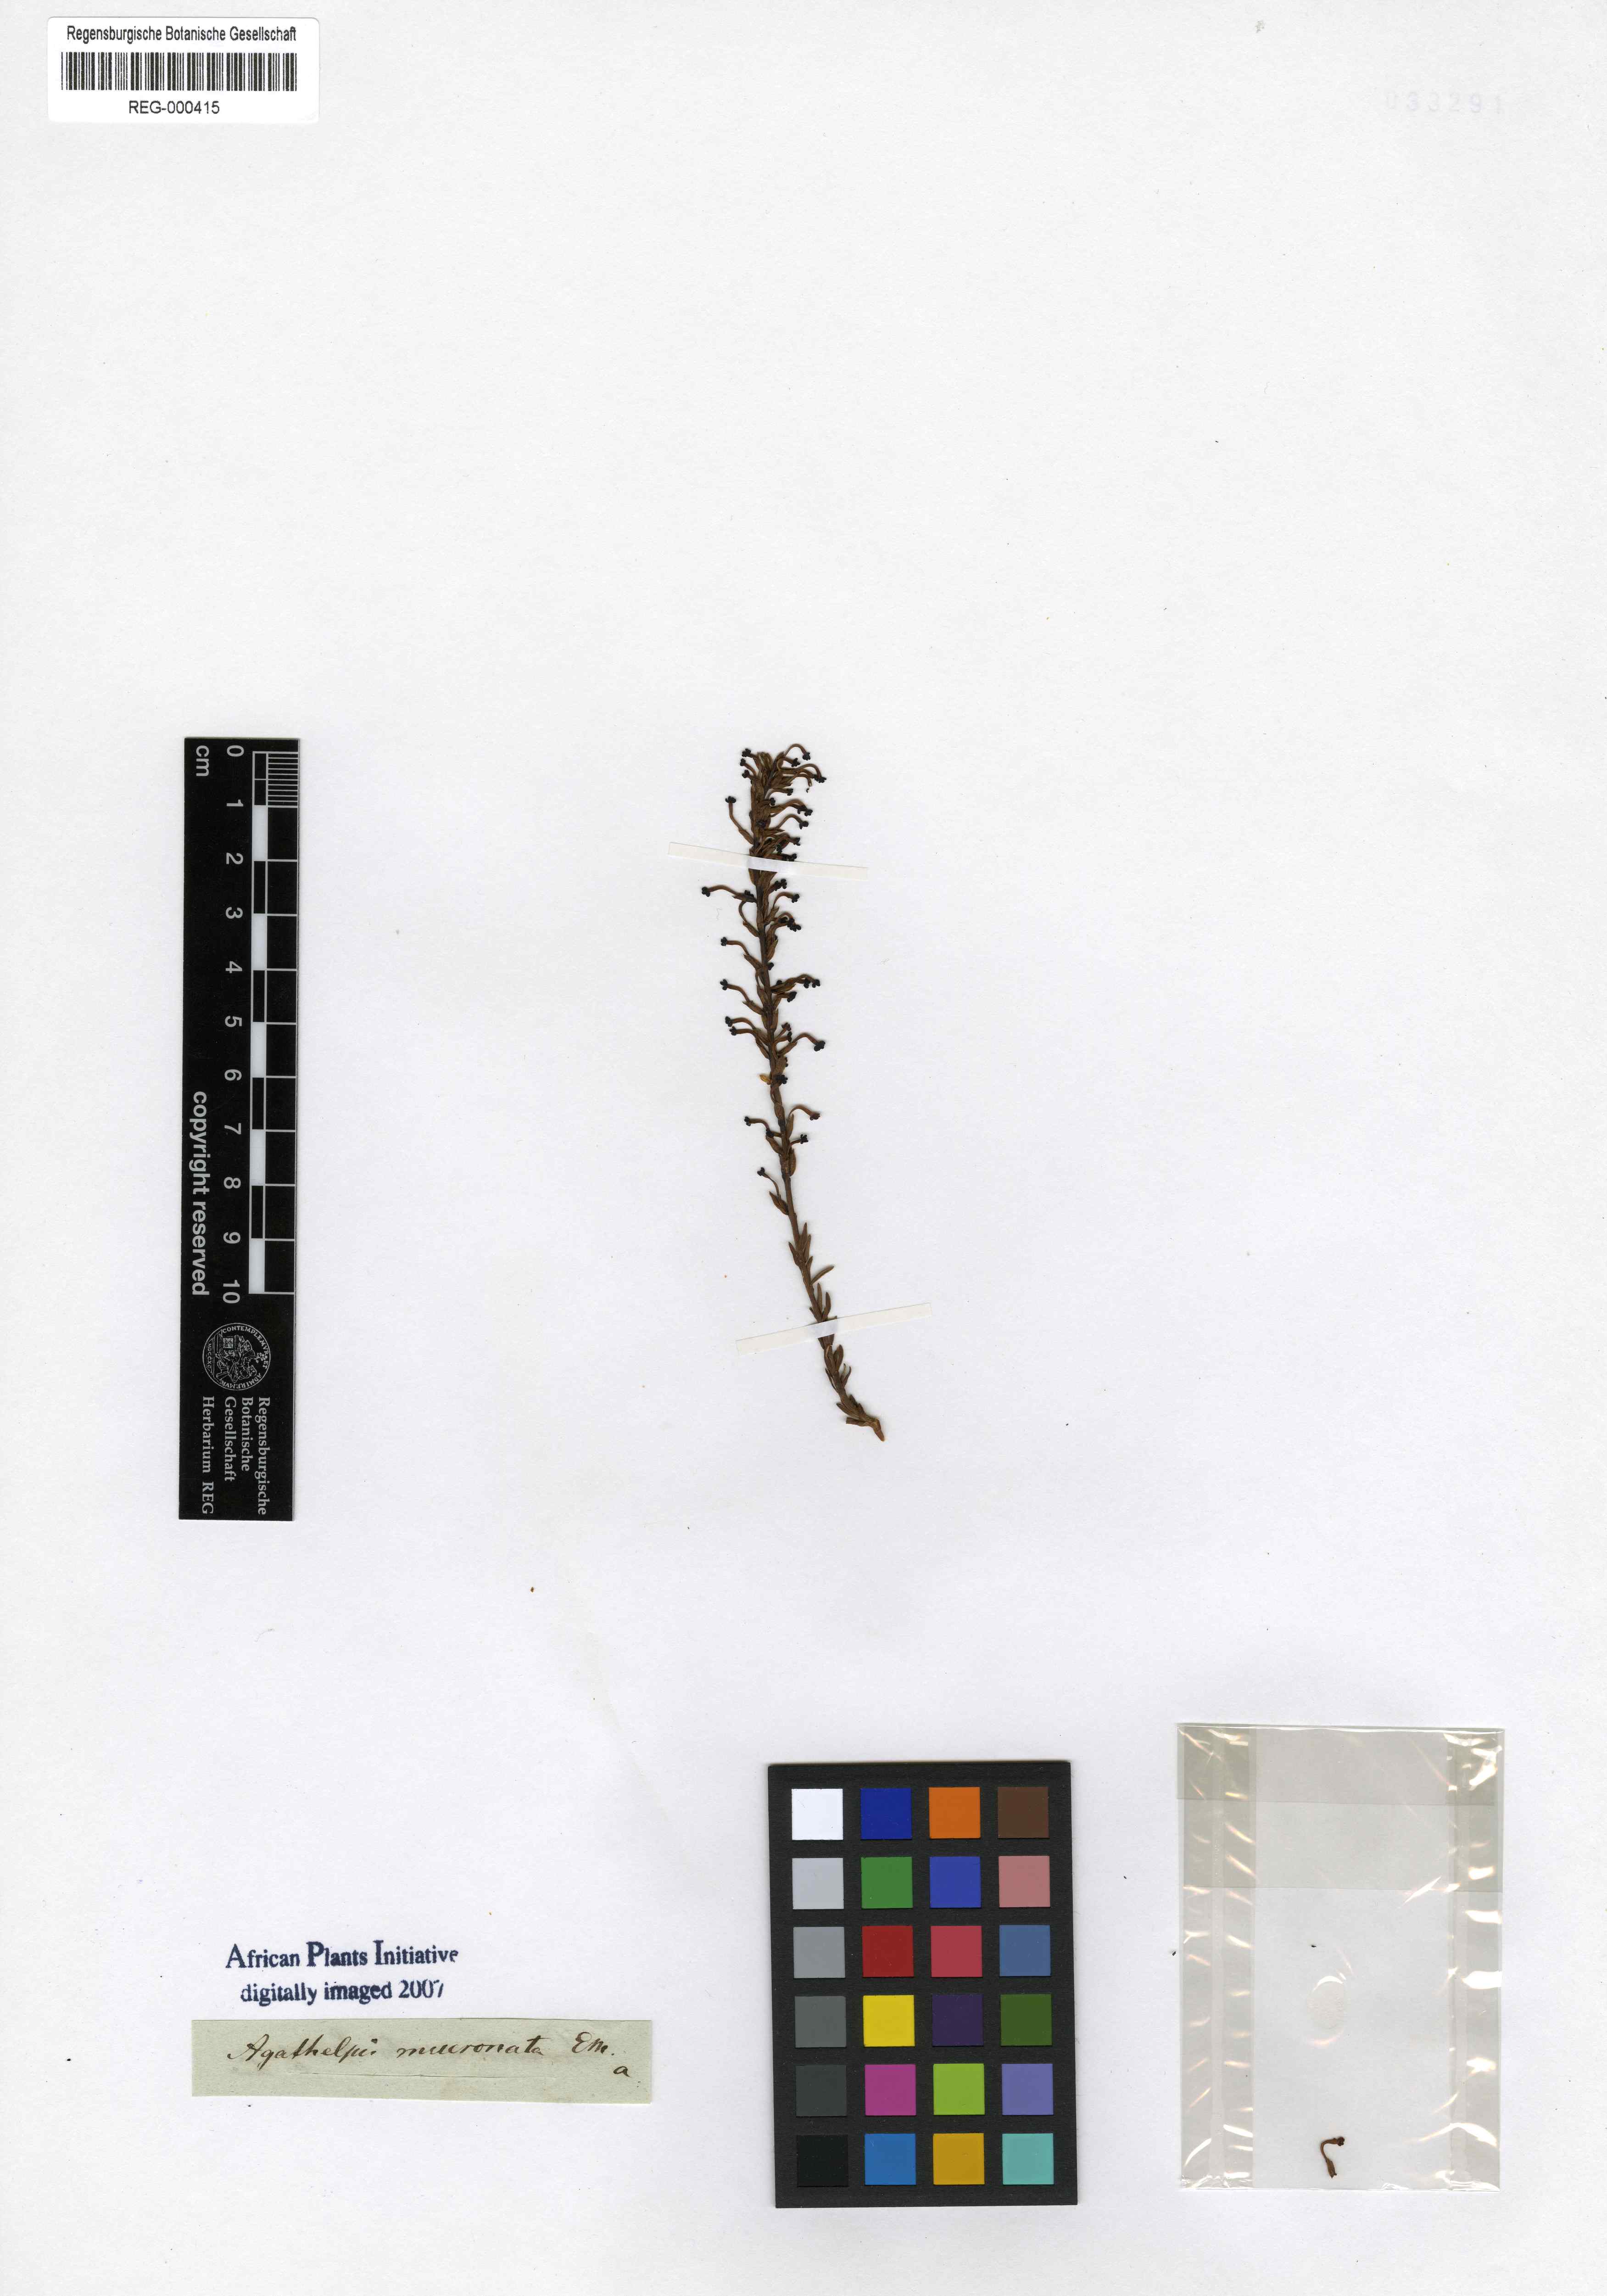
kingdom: Plantae
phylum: Tracheophyta
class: Magnoliopsida
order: Lamiales
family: Scrophulariaceae
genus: Microdon
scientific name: Microdon dubius
